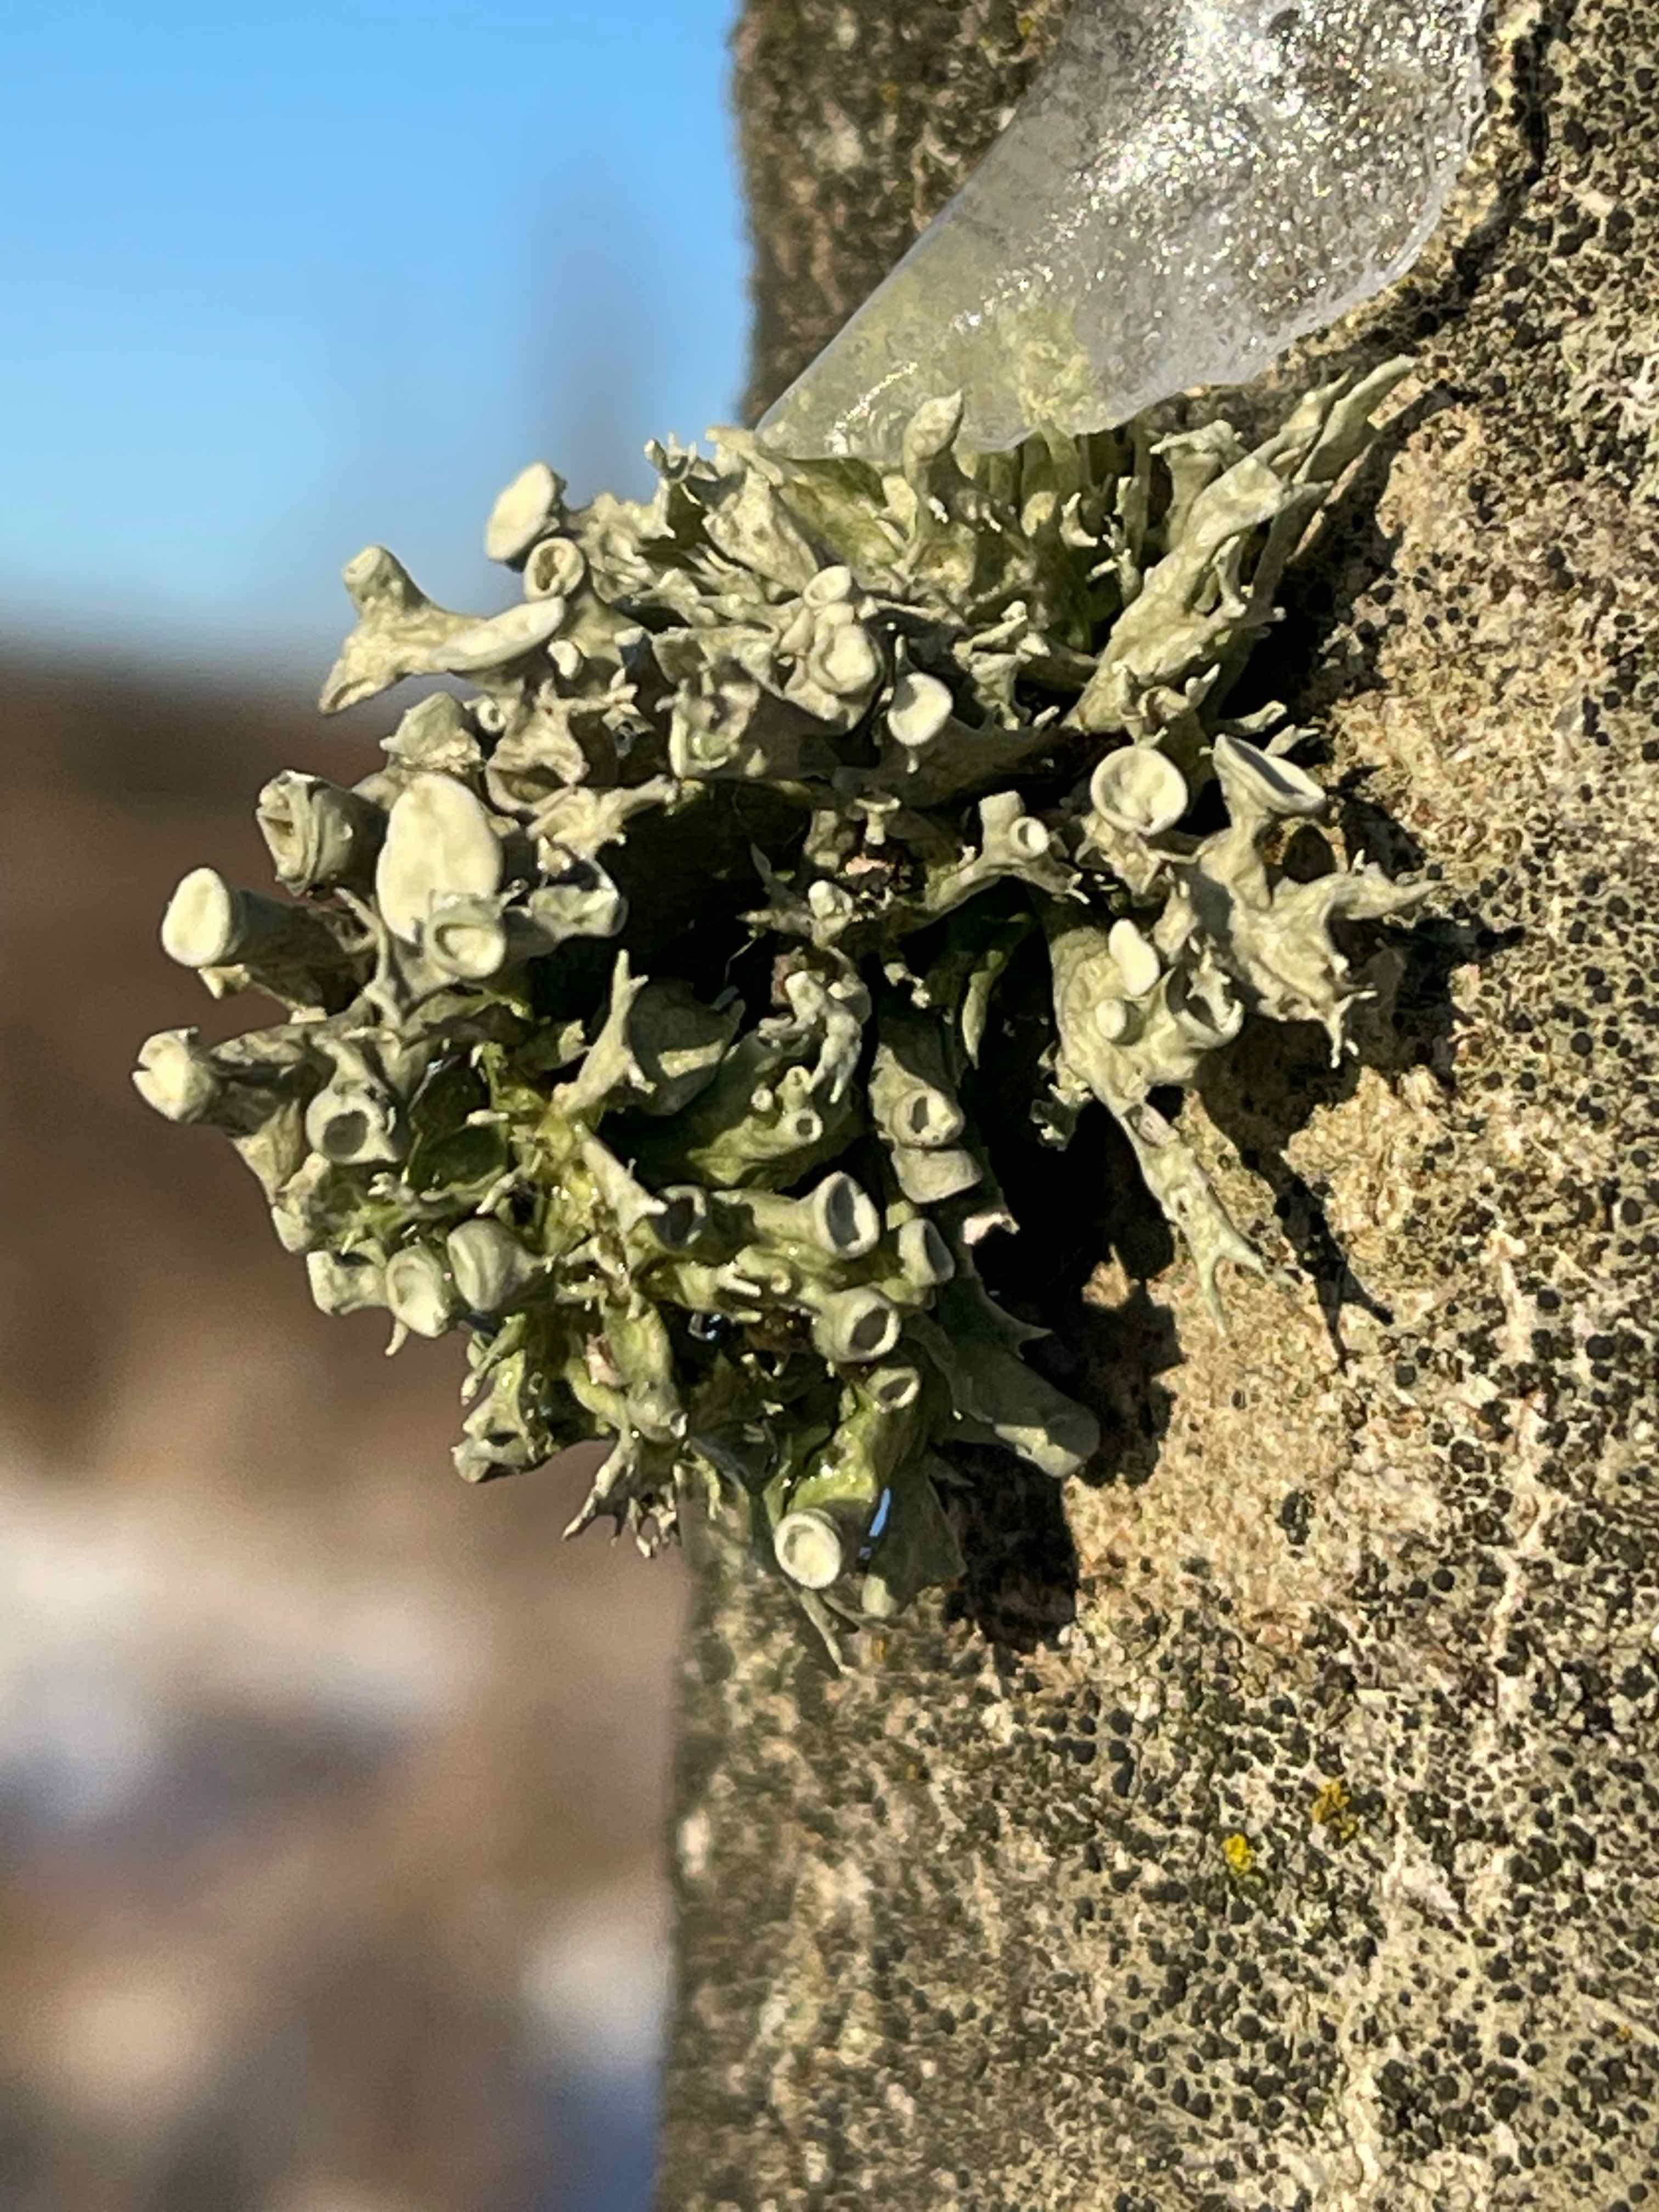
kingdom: Fungi
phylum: Ascomycota
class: Lecanoromycetes
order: Lecanorales
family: Ramalinaceae
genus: Ramalina
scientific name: Ramalina fastigiata
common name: tue-grenlav
